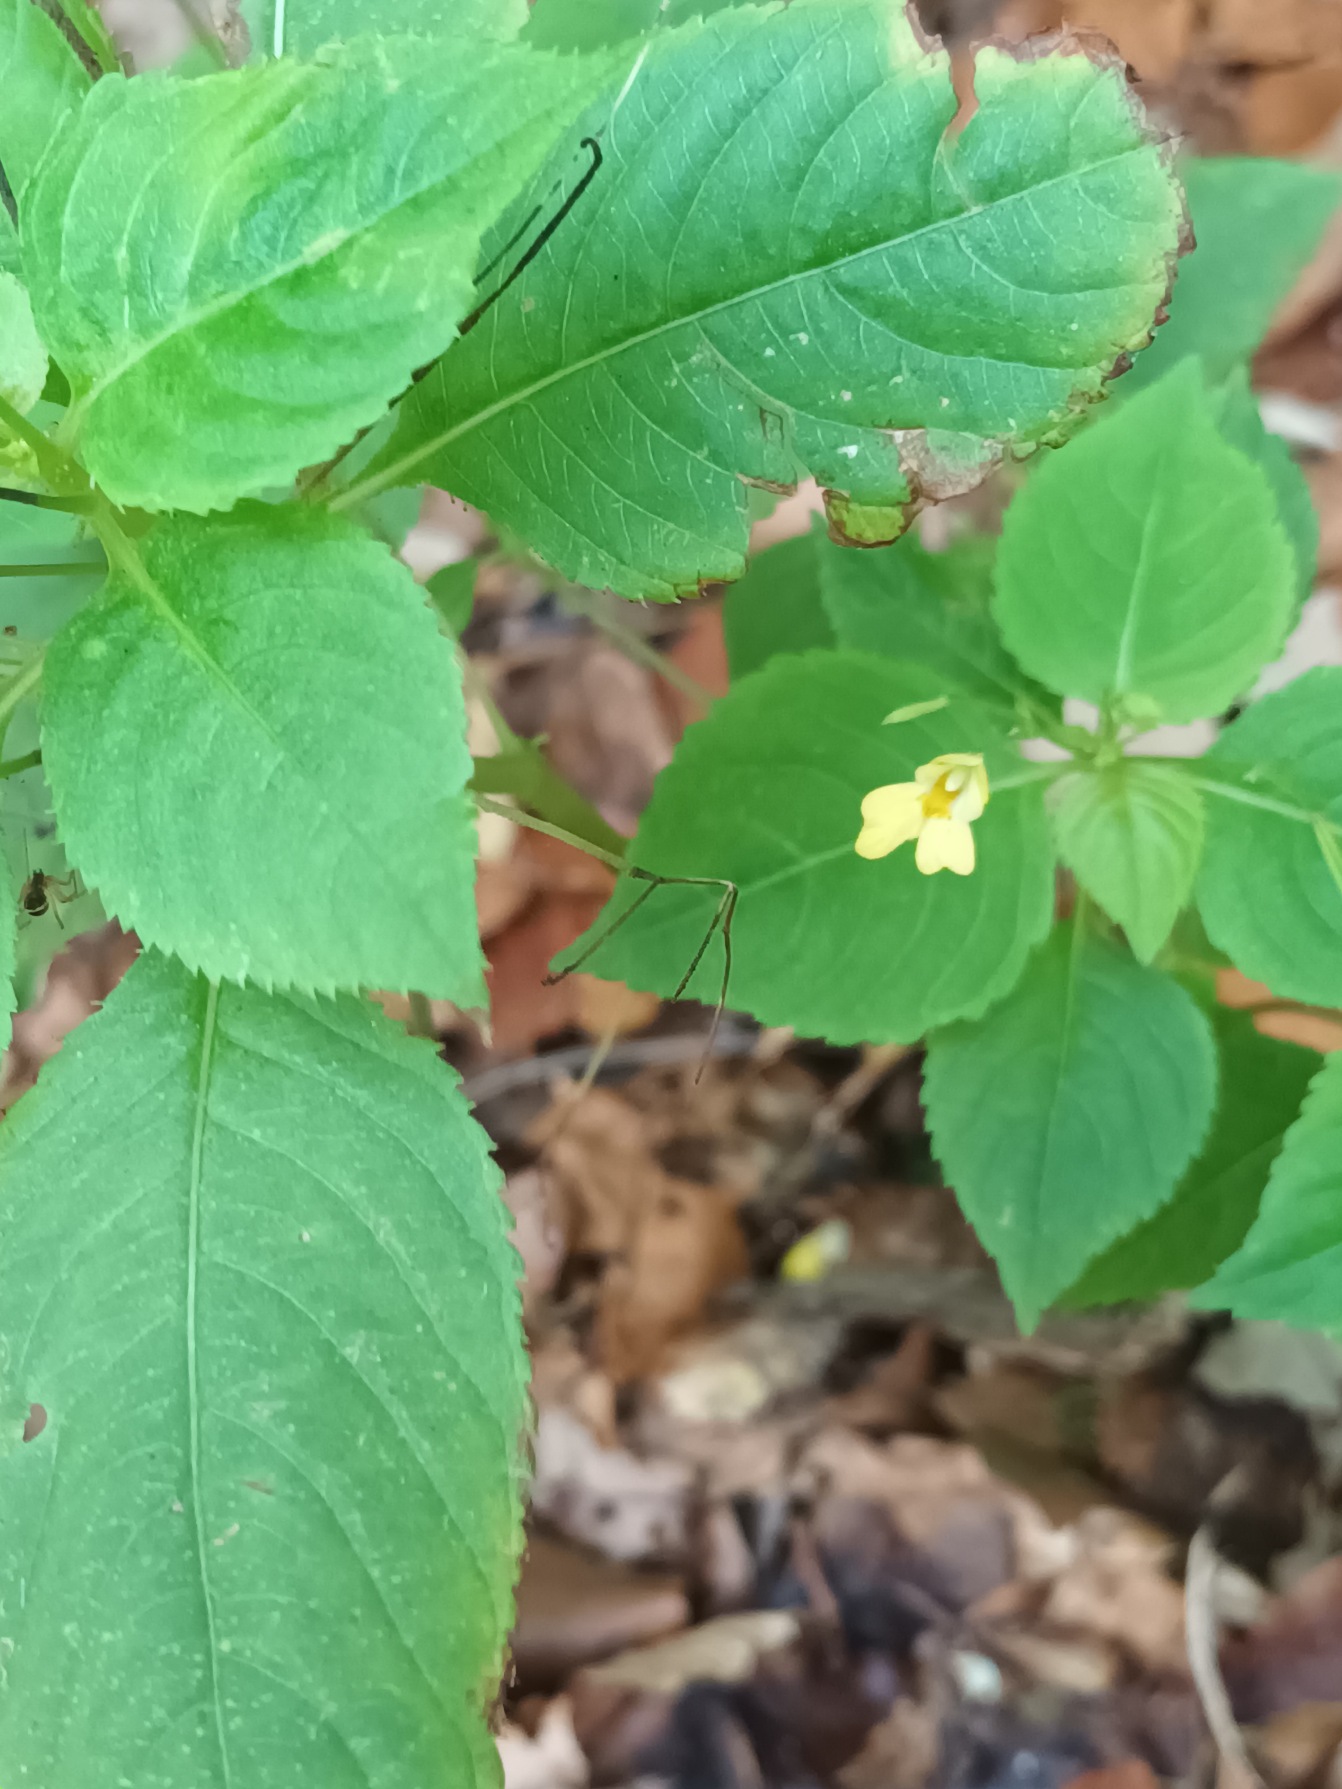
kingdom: Plantae
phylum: Tracheophyta
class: Magnoliopsida
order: Ericales
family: Balsaminaceae
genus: Impatiens
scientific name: Impatiens parviflora
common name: Småblomstret balsamin
